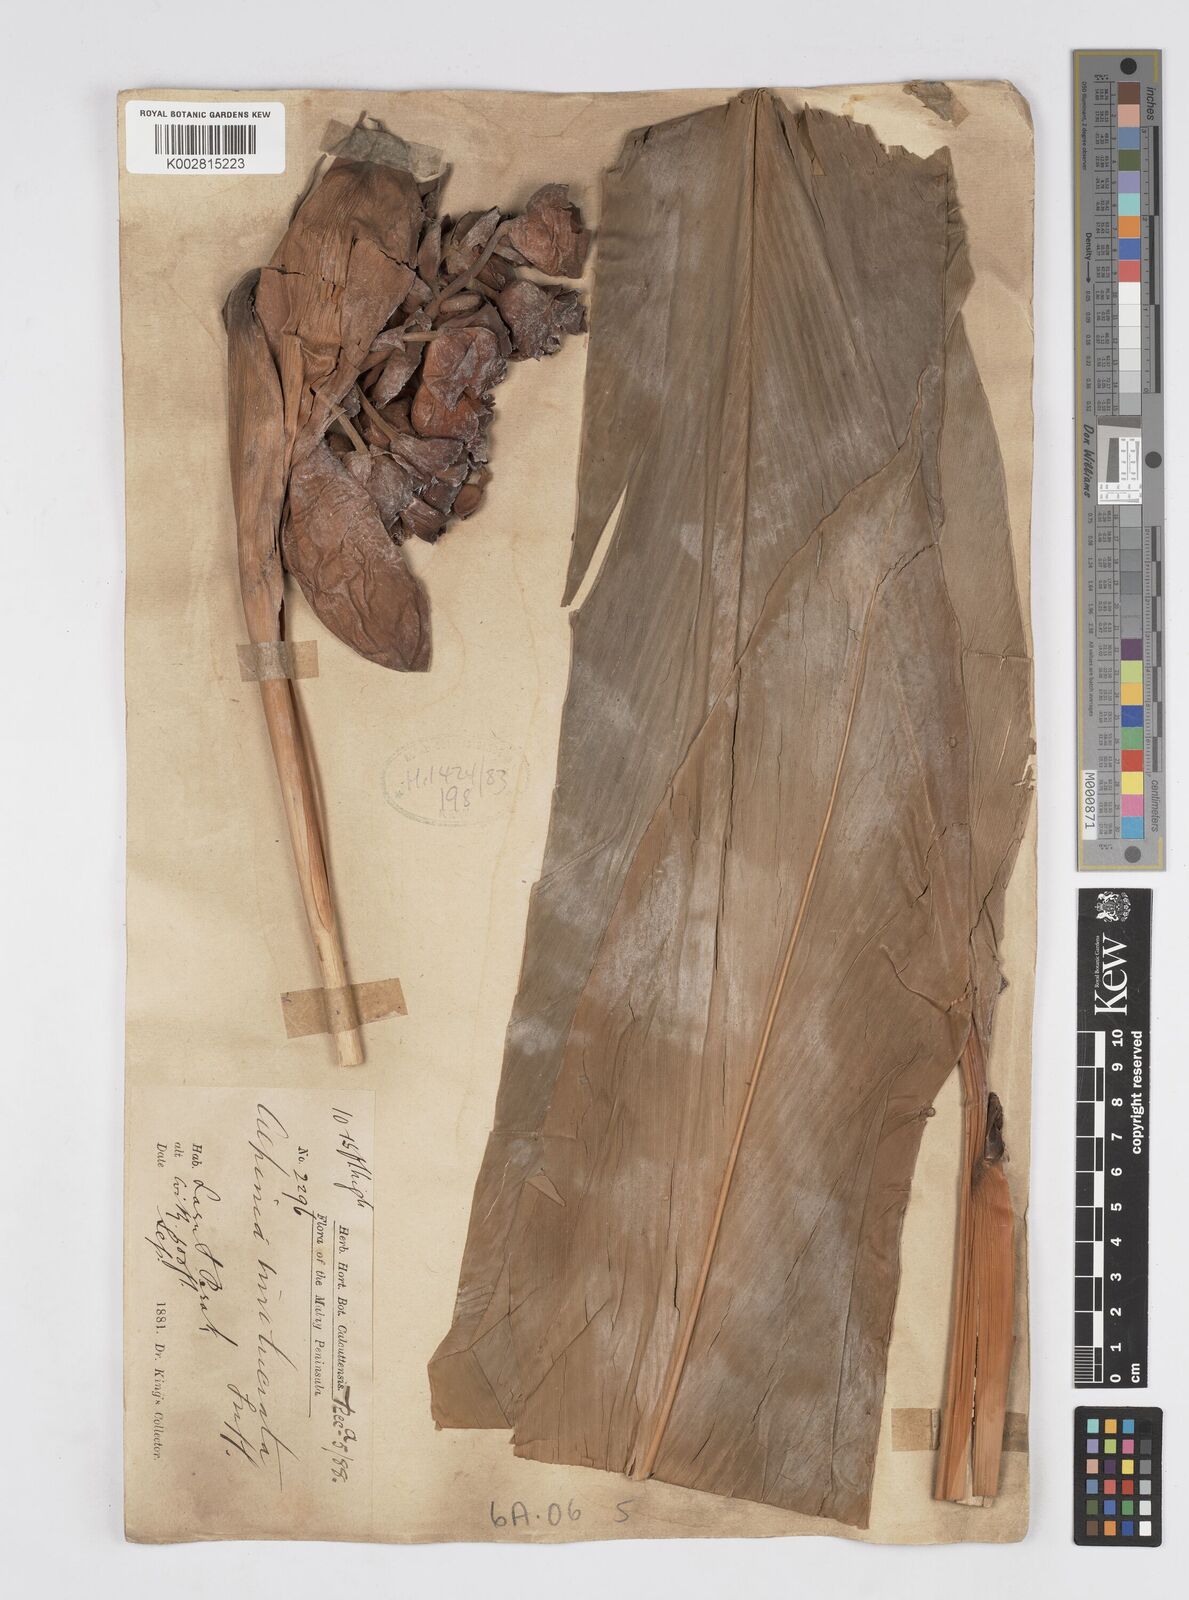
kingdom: Plantae
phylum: Tracheophyta
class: Liliopsida
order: Zingiberales
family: Zingiberaceae
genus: Alpinia
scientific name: Alpinia javanica
